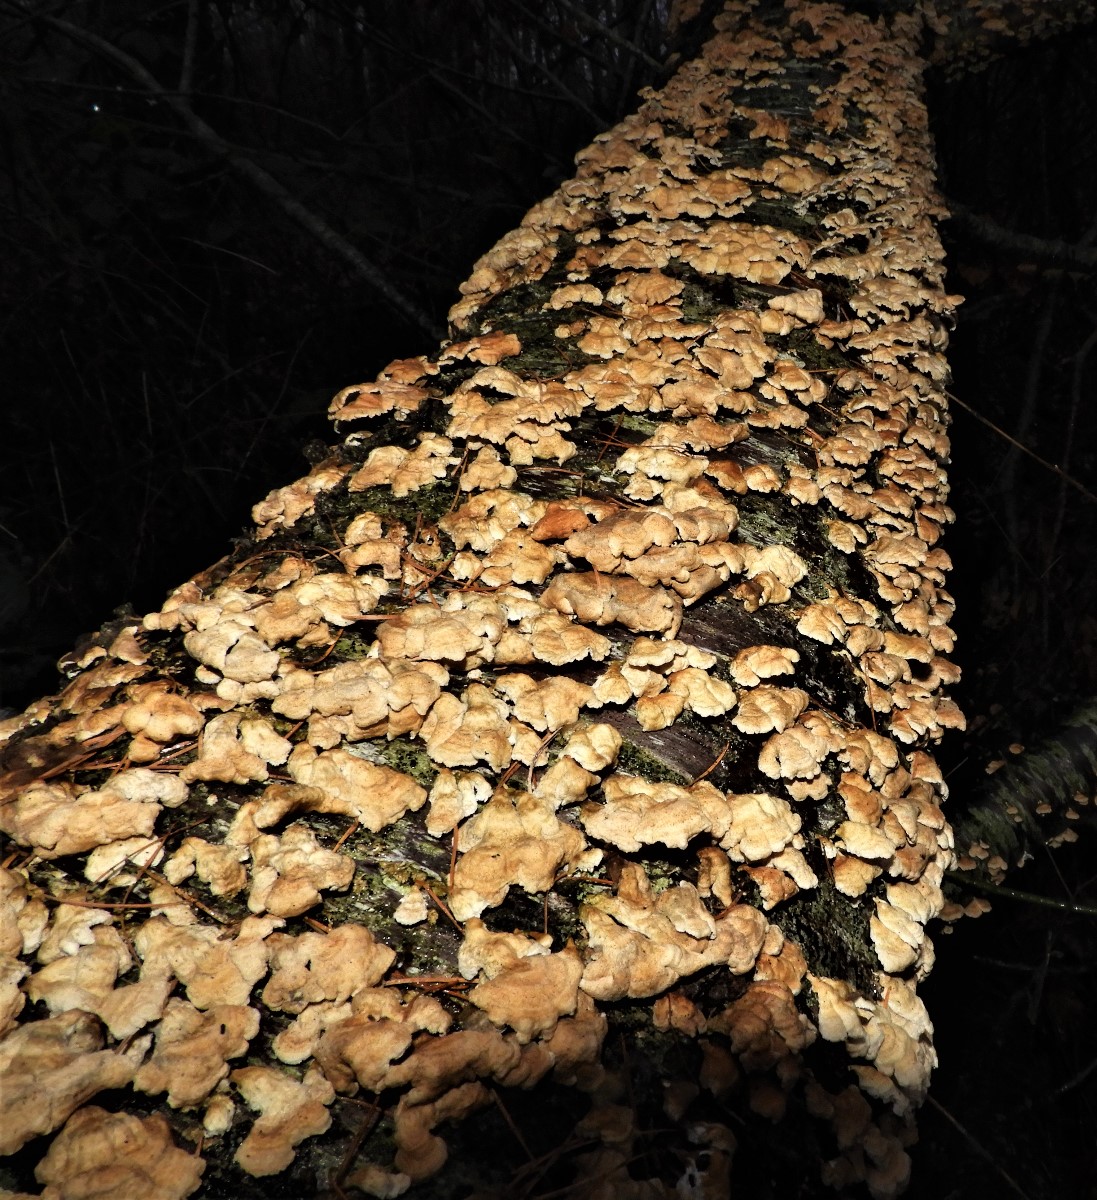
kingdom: Fungi
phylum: Basidiomycota
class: Agaricomycetes
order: Amylocorticiales
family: Amylocorticiaceae
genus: Plicaturopsis
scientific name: Plicaturopsis crispa
